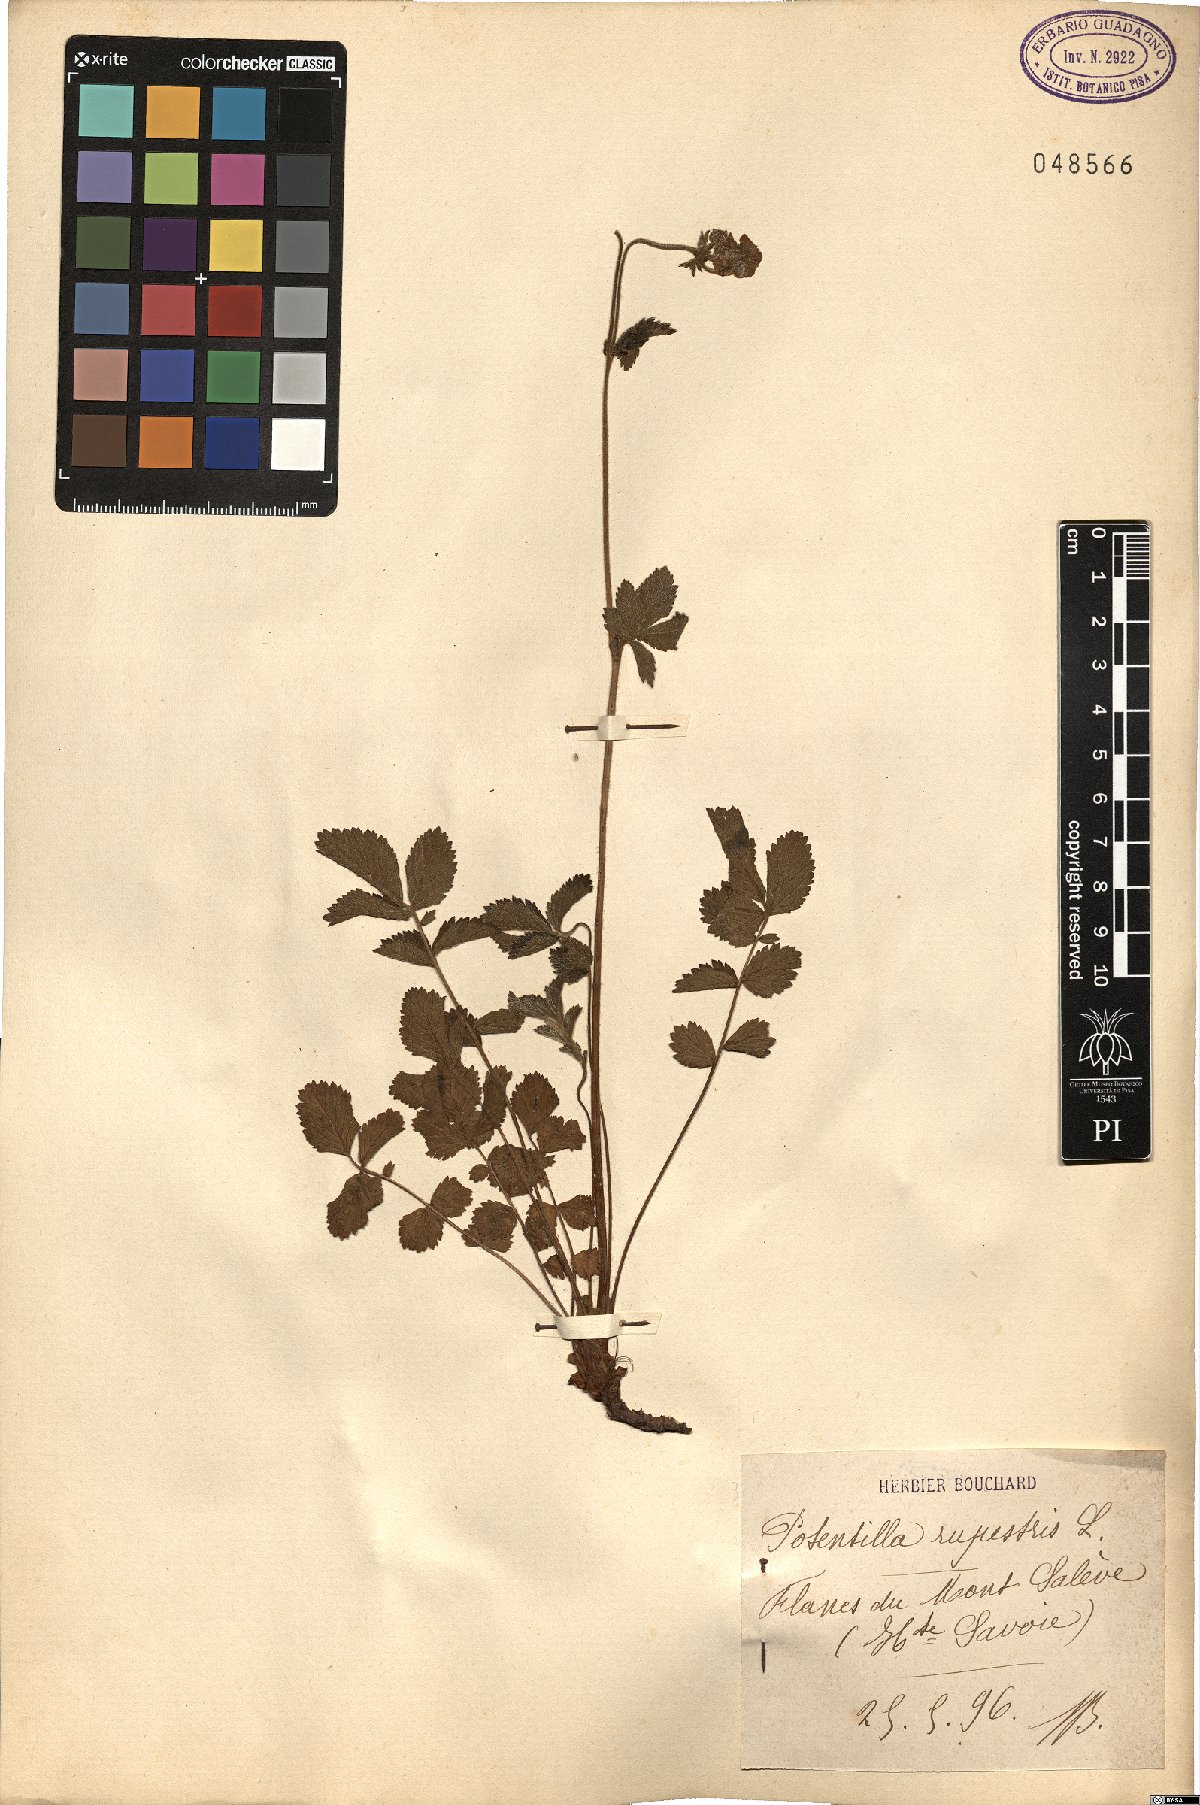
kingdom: Plantae
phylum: Tracheophyta
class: Magnoliopsida
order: Rosales
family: Rosaceae
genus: Drymocallis
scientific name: Drymocallis rupestris
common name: Rock cinquefoil
